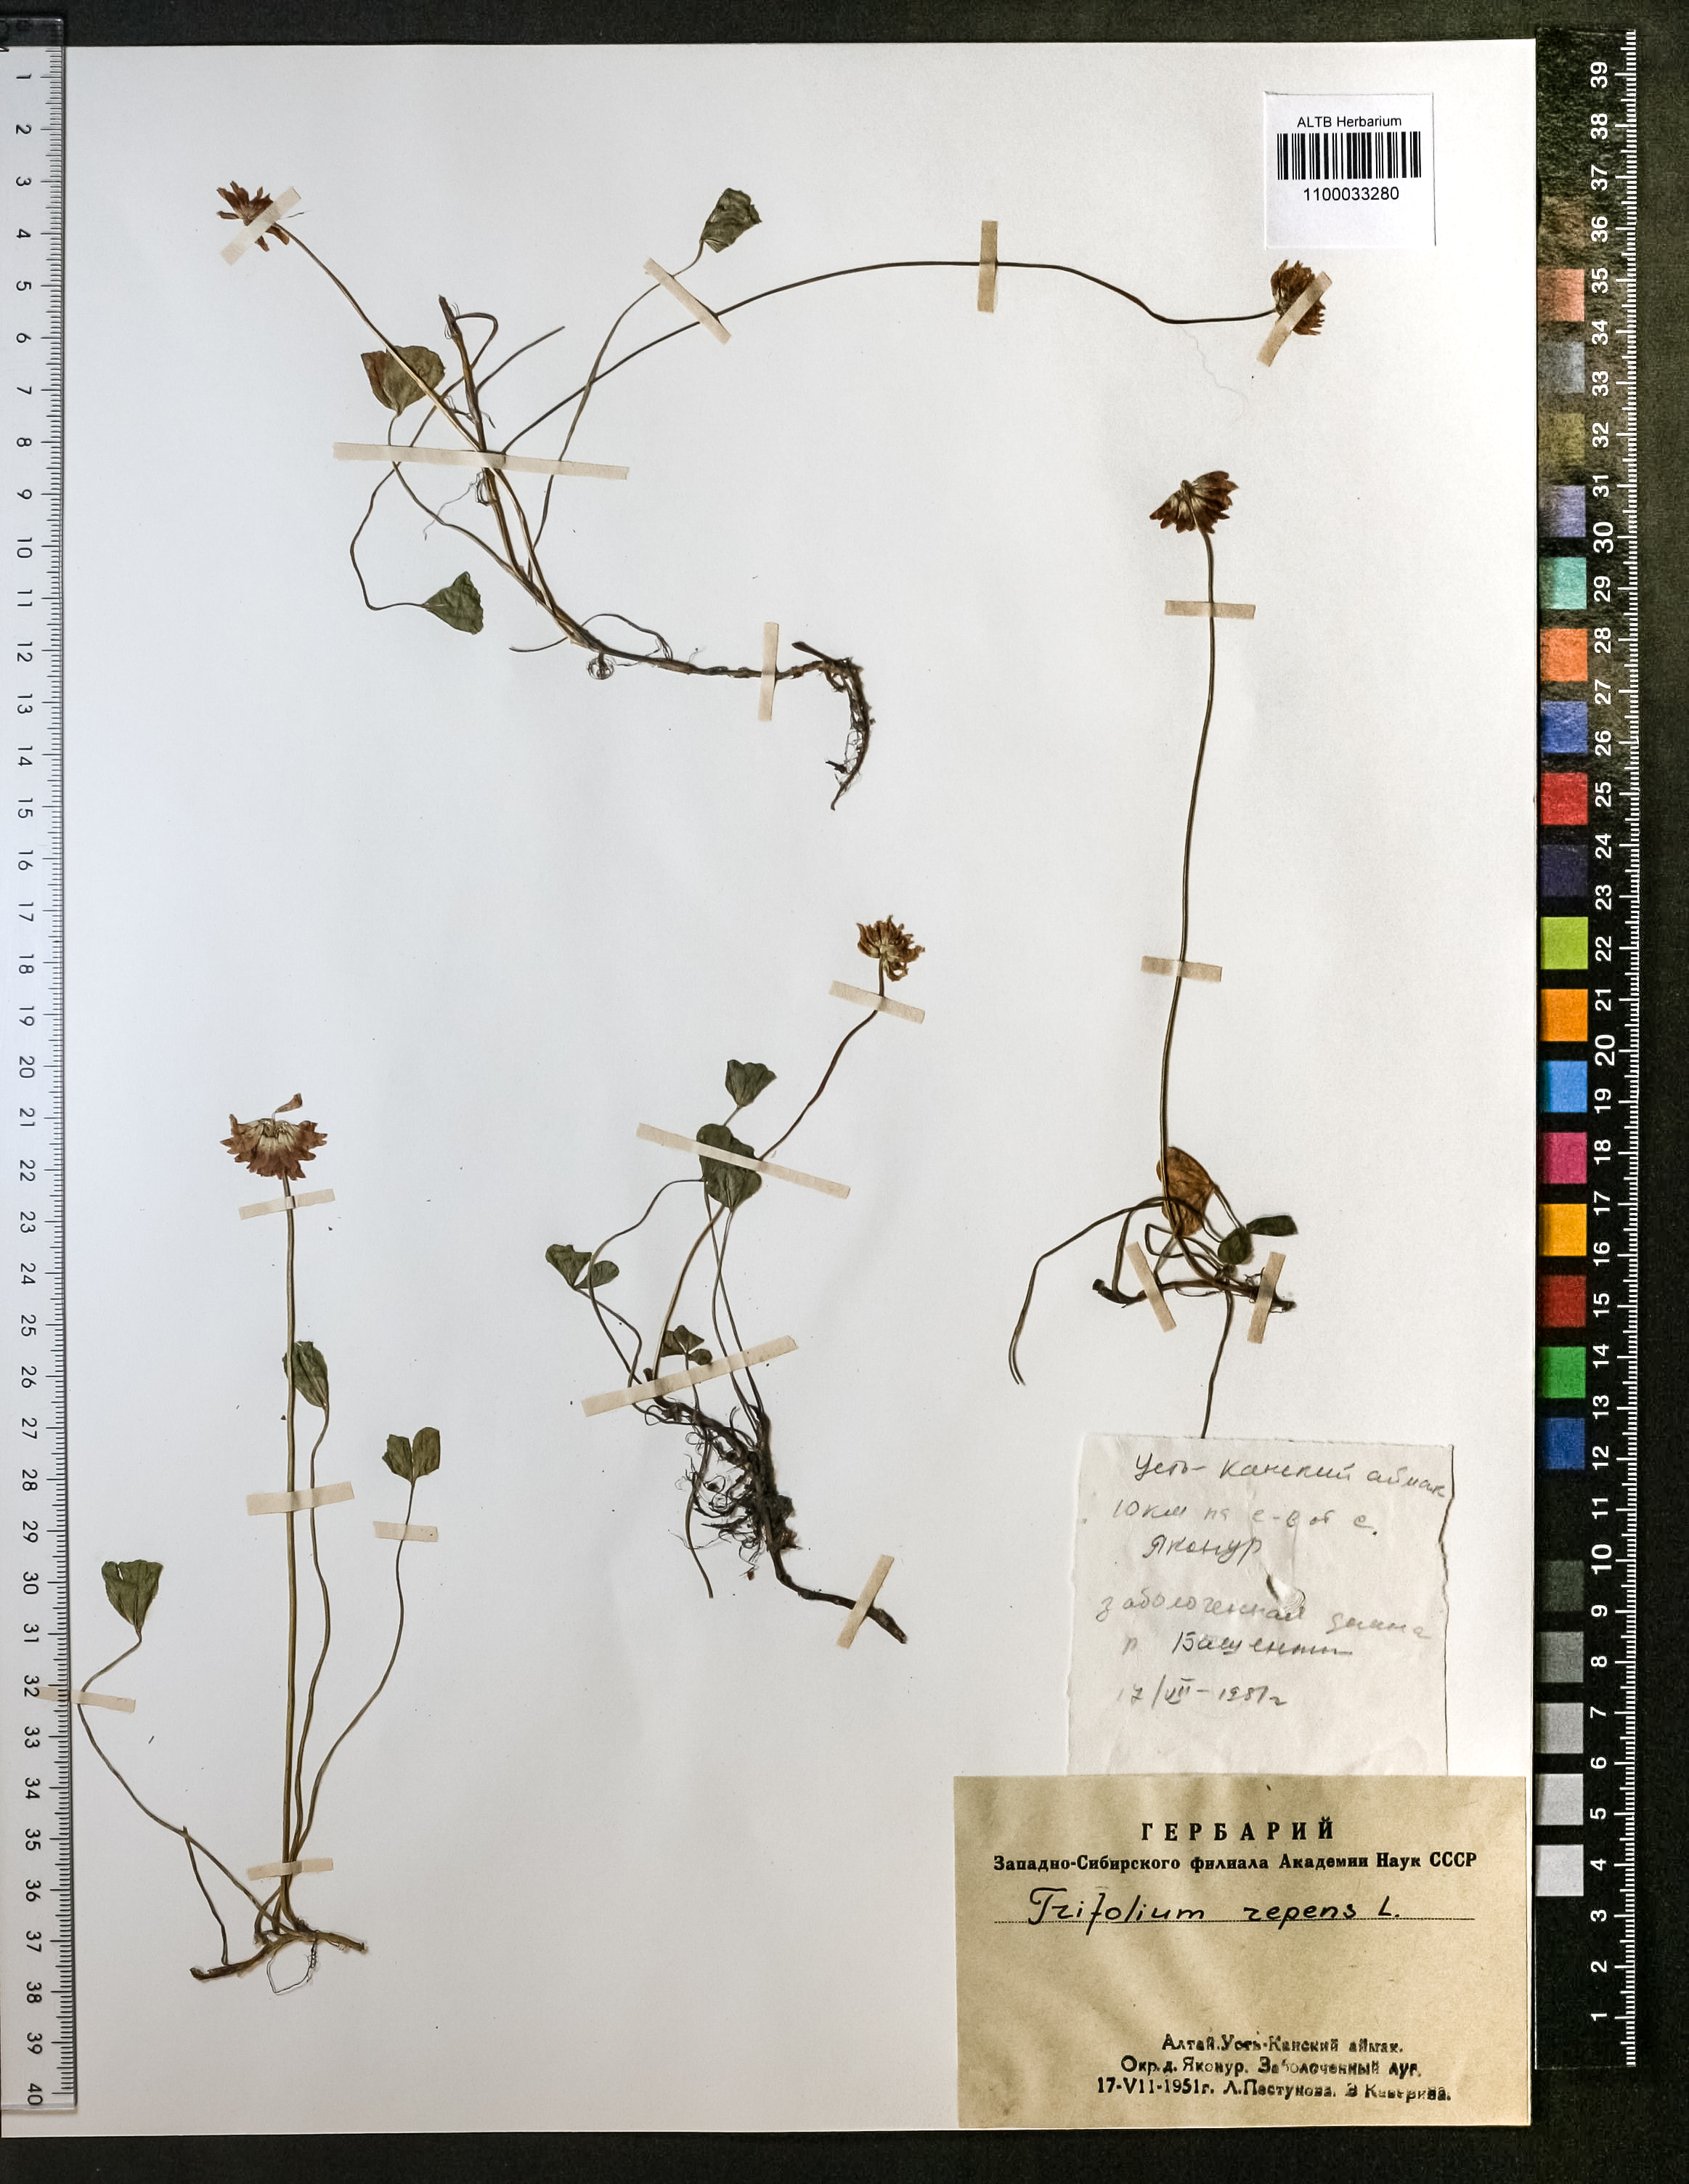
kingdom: Plantae
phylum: Tracheophyta
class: Magnoliopsida
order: Fabales
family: Fabaceae
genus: Trifolium
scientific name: Trifolium repens
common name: White clover
